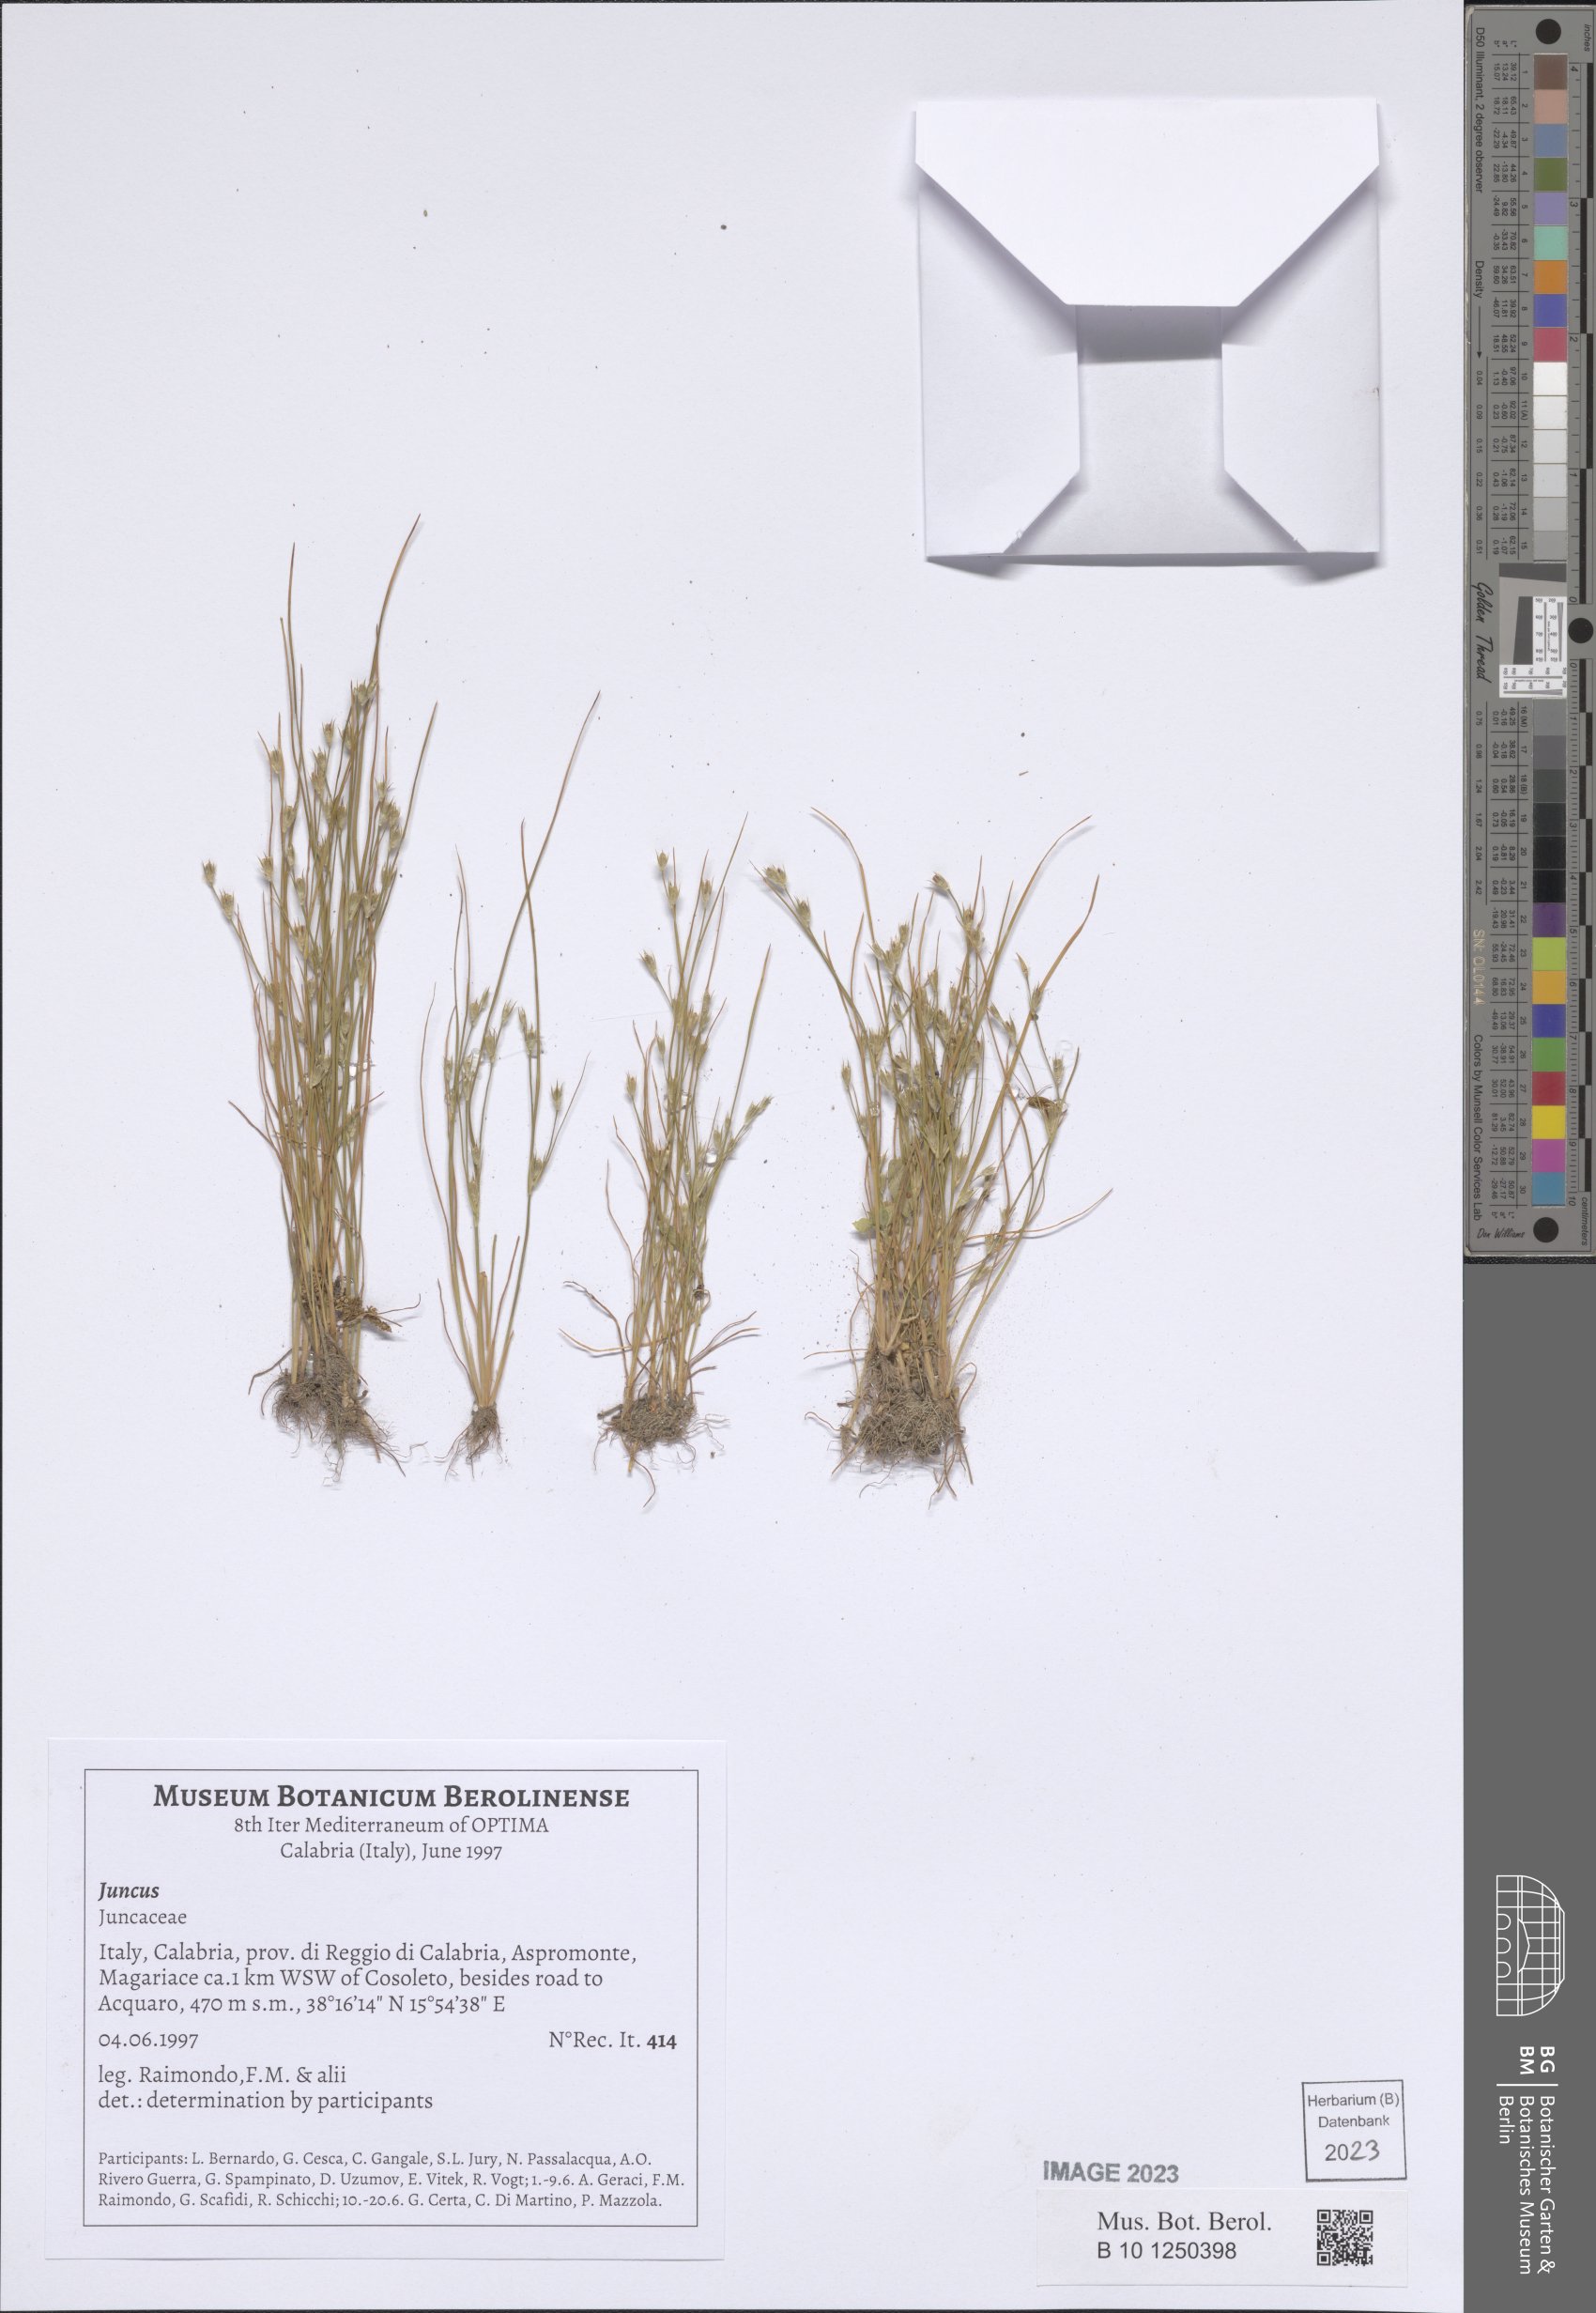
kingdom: Plantae
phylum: Tracheophyta
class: Liliopsida
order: Poales
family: Juncaceae
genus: Juncus
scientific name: Juncus
